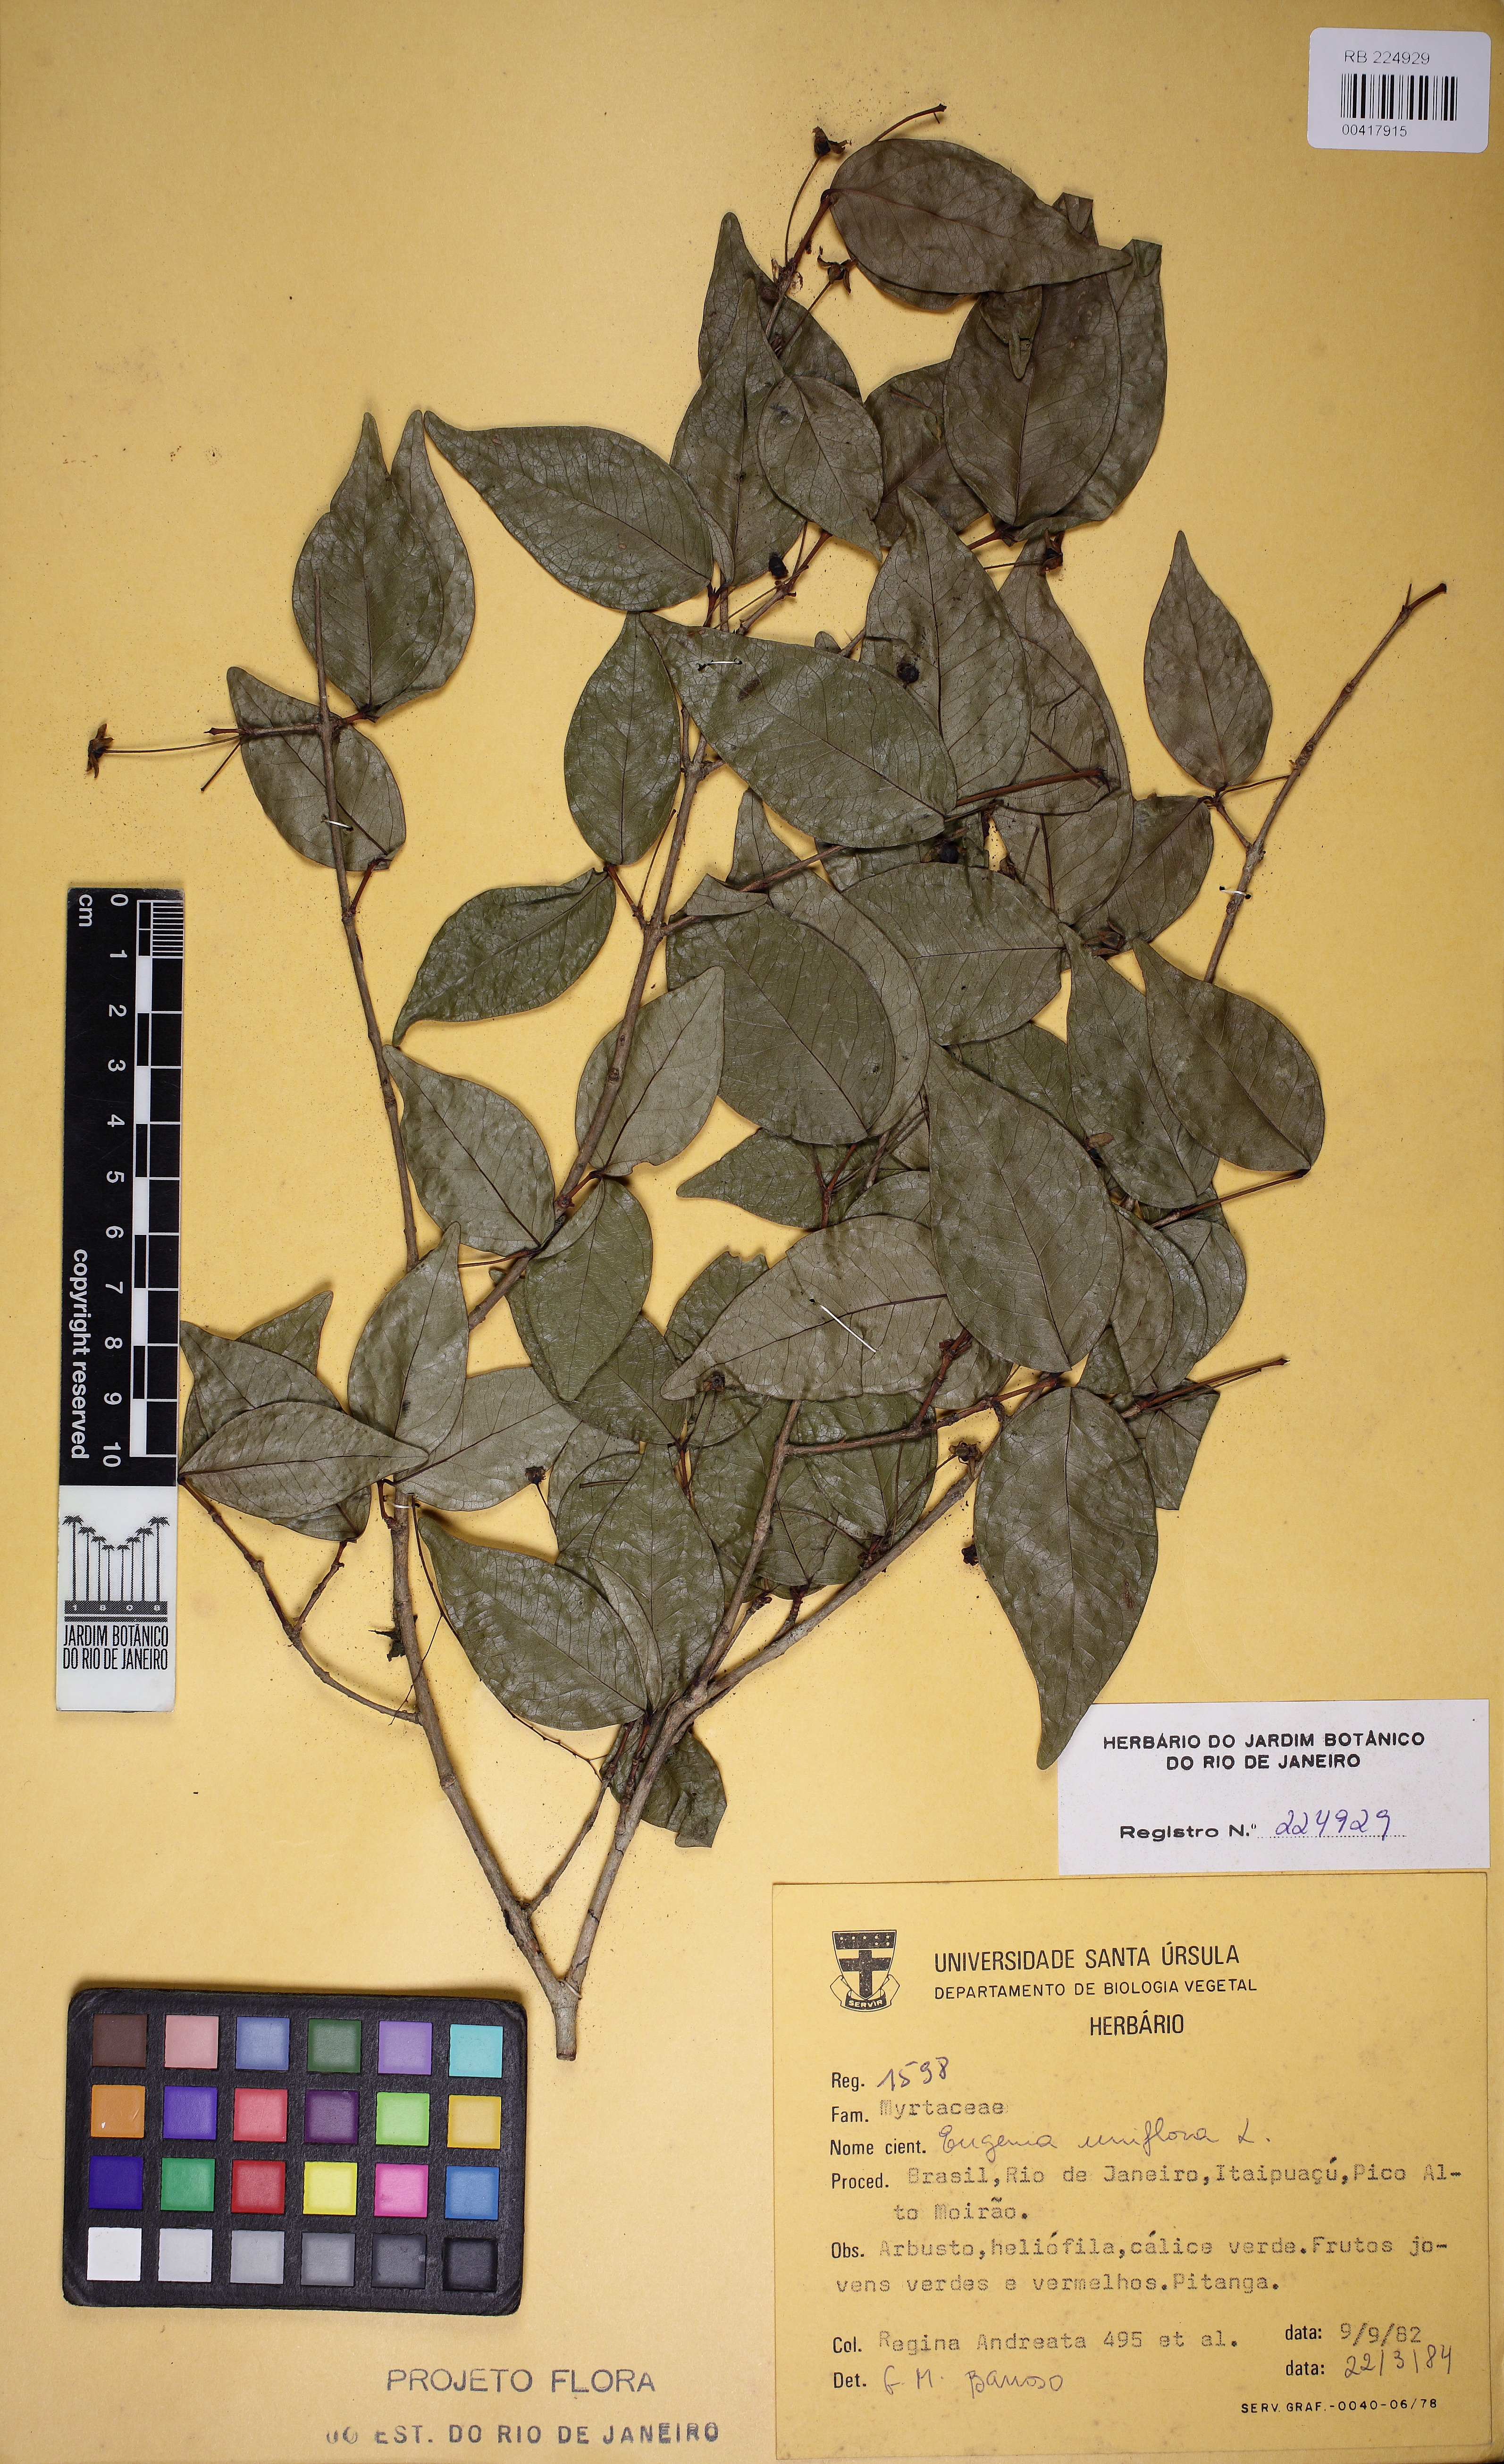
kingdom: Plantae
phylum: Tracheophyta
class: Magnoliopsida
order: Myrtales
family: Myrtaceae
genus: Eugenia
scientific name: Eugenia uniflora
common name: Surinam cherry
